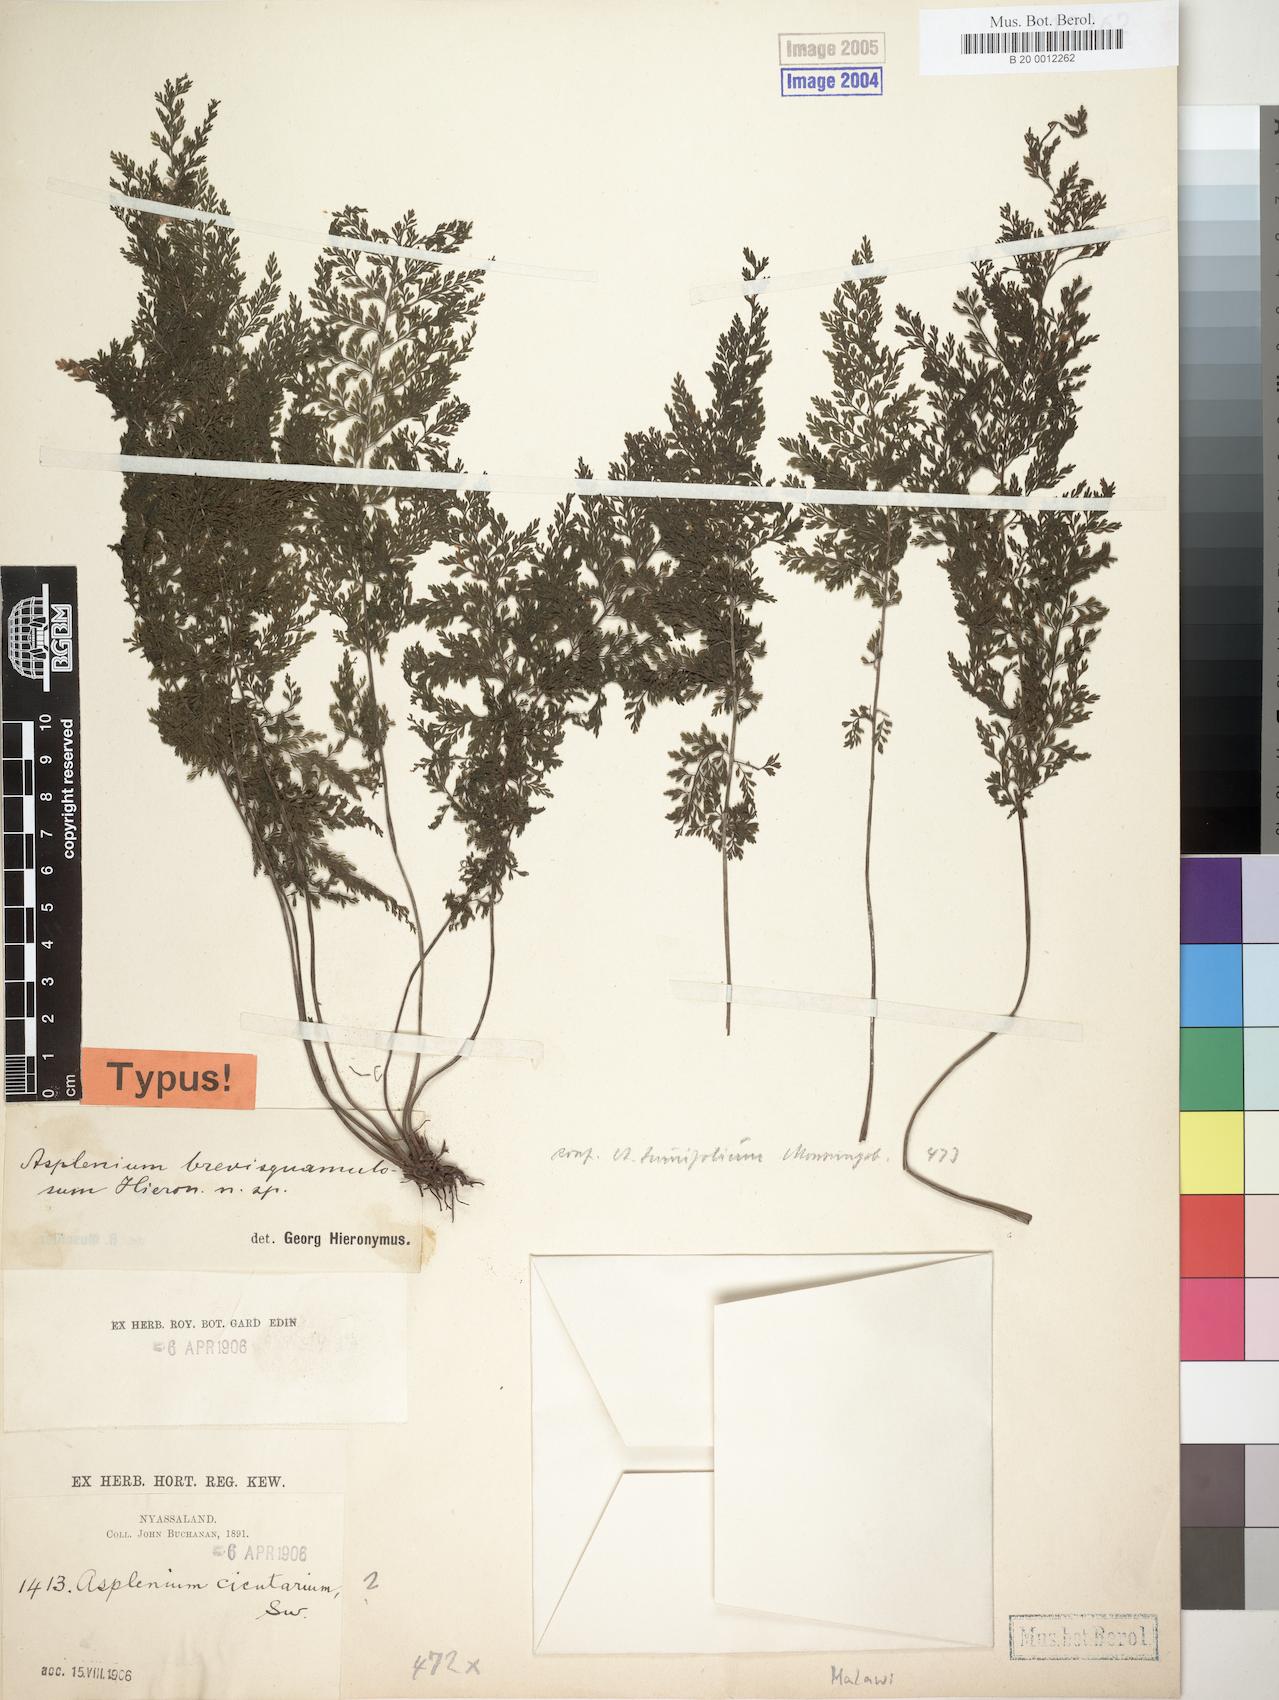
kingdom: Plantae
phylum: Tracheophyta
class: Polypodiopsida
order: Polypodiales
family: Aspleniaceae
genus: Asplenium
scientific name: Asplenium
